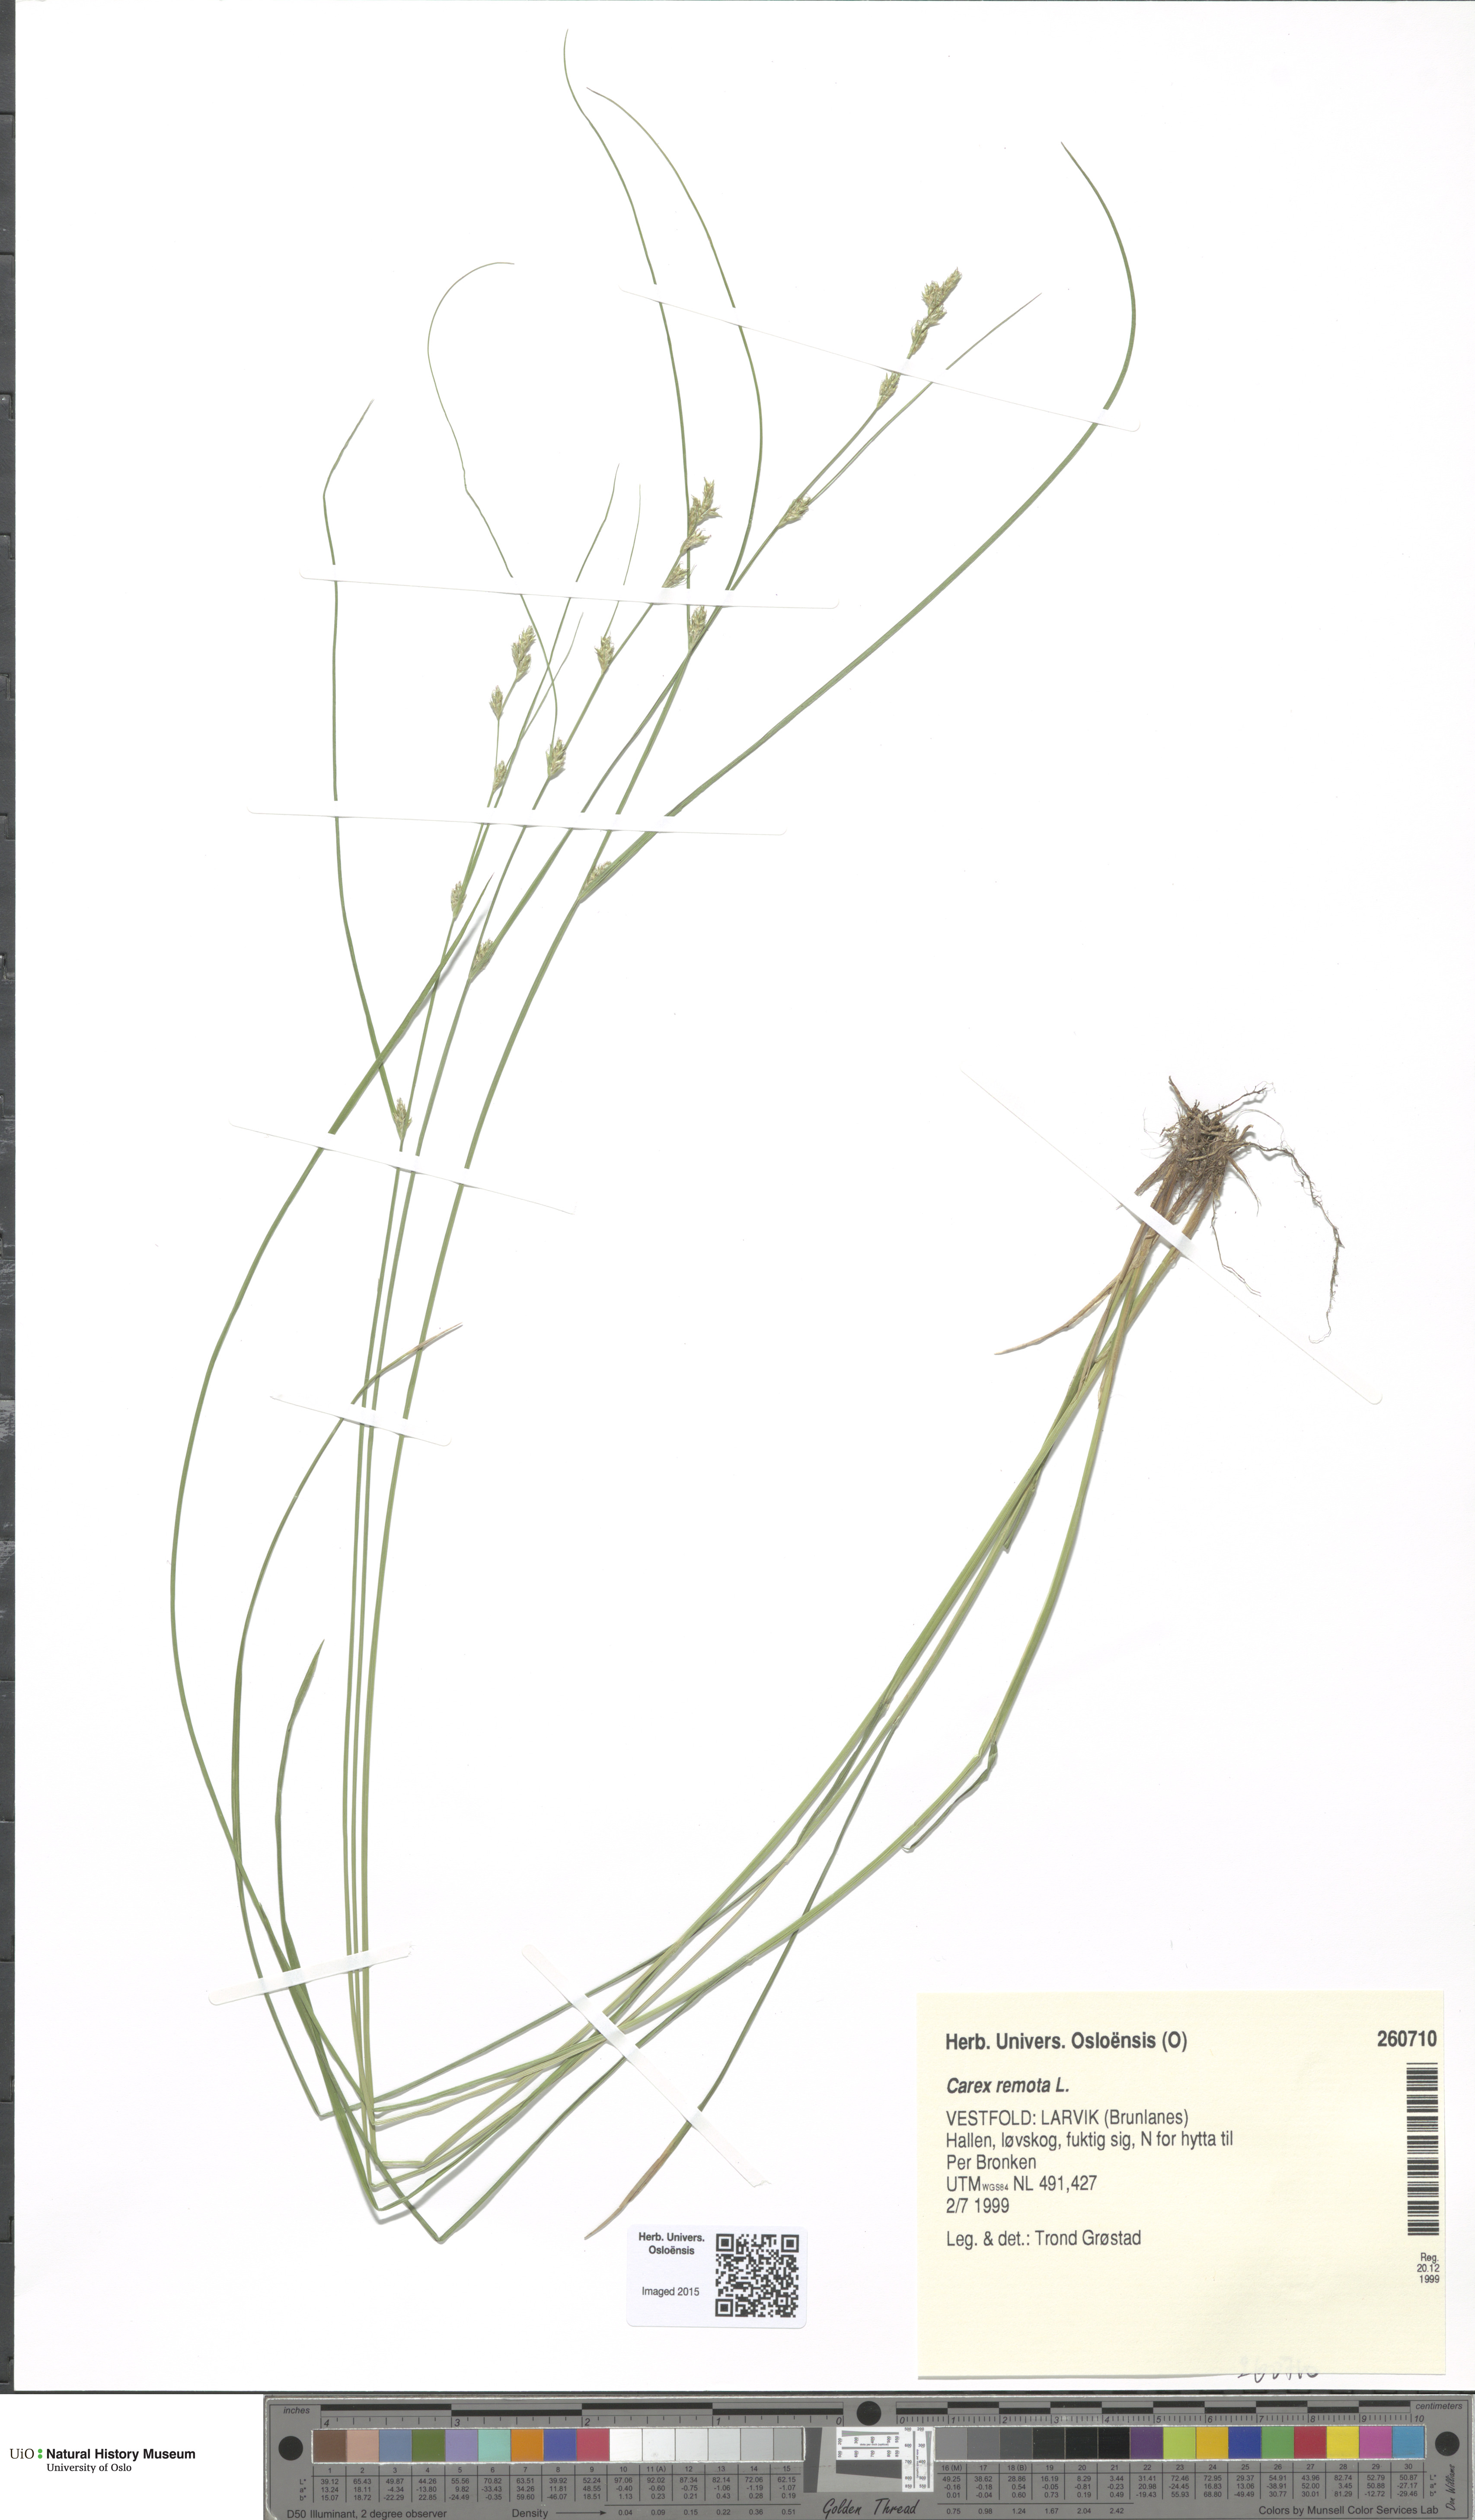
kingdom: Plantae
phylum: Tracheophyta
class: Liliopsida
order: Poales
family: Cyperaceae
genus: Carex
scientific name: Carex remota
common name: Remote sedge
